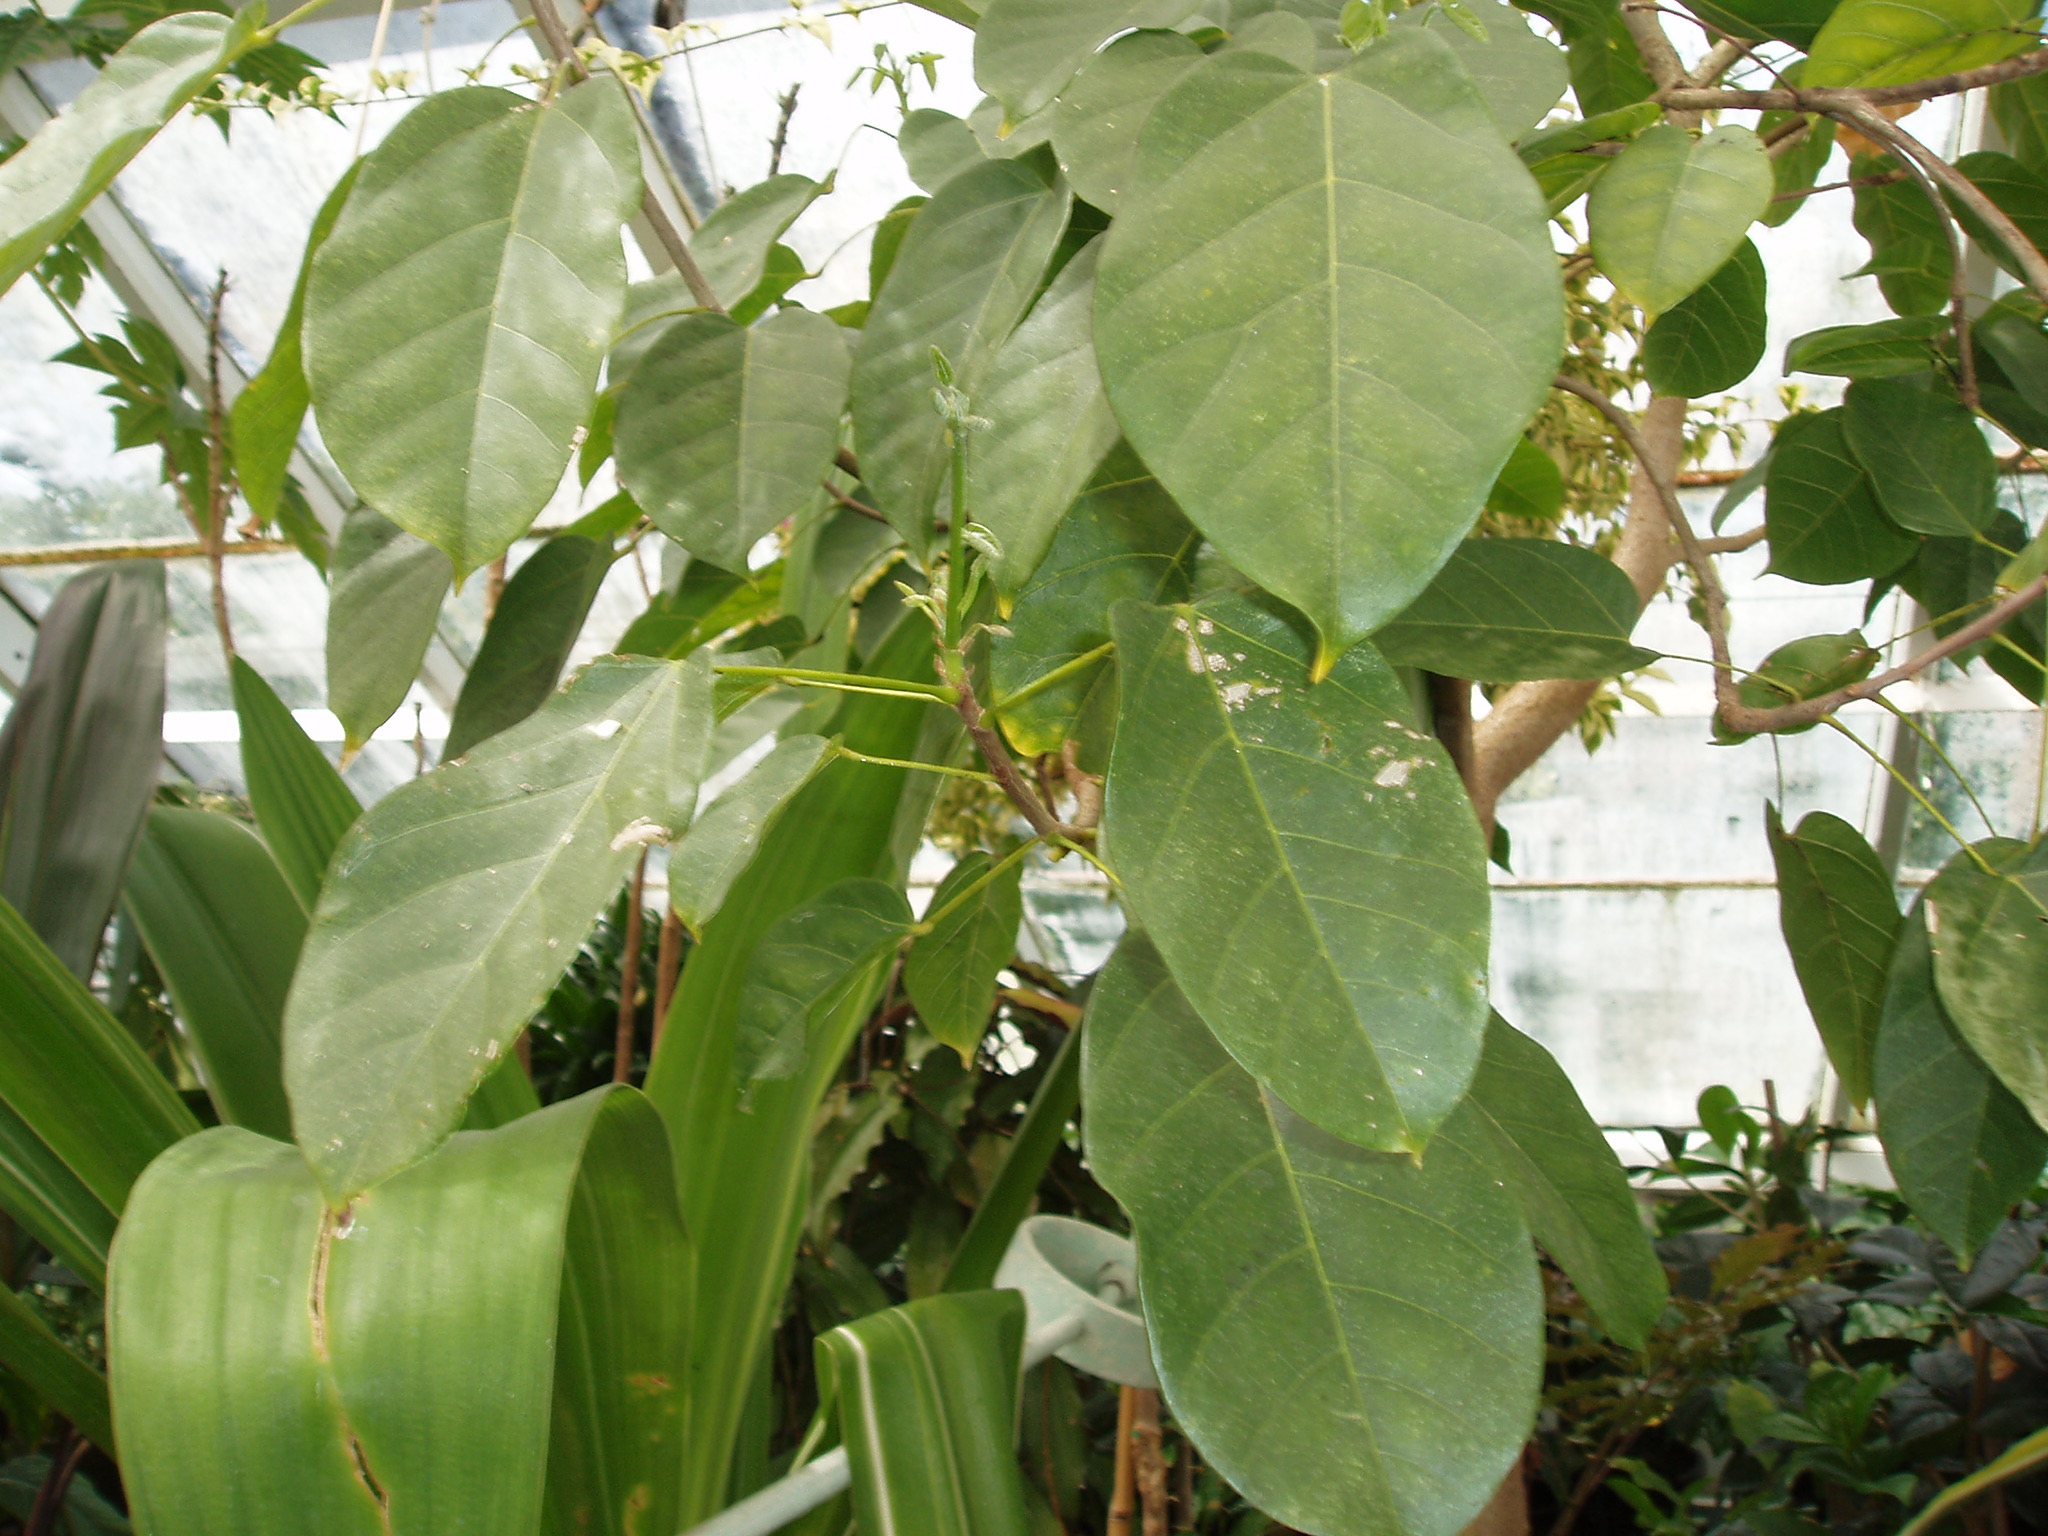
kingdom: Plantae
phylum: Tracheophyta
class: Magnoliopsida
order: Malvales
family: Malvaceae
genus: Sterculia
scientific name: Sterculia quadrifida
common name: Orange-fruit kurrajong
